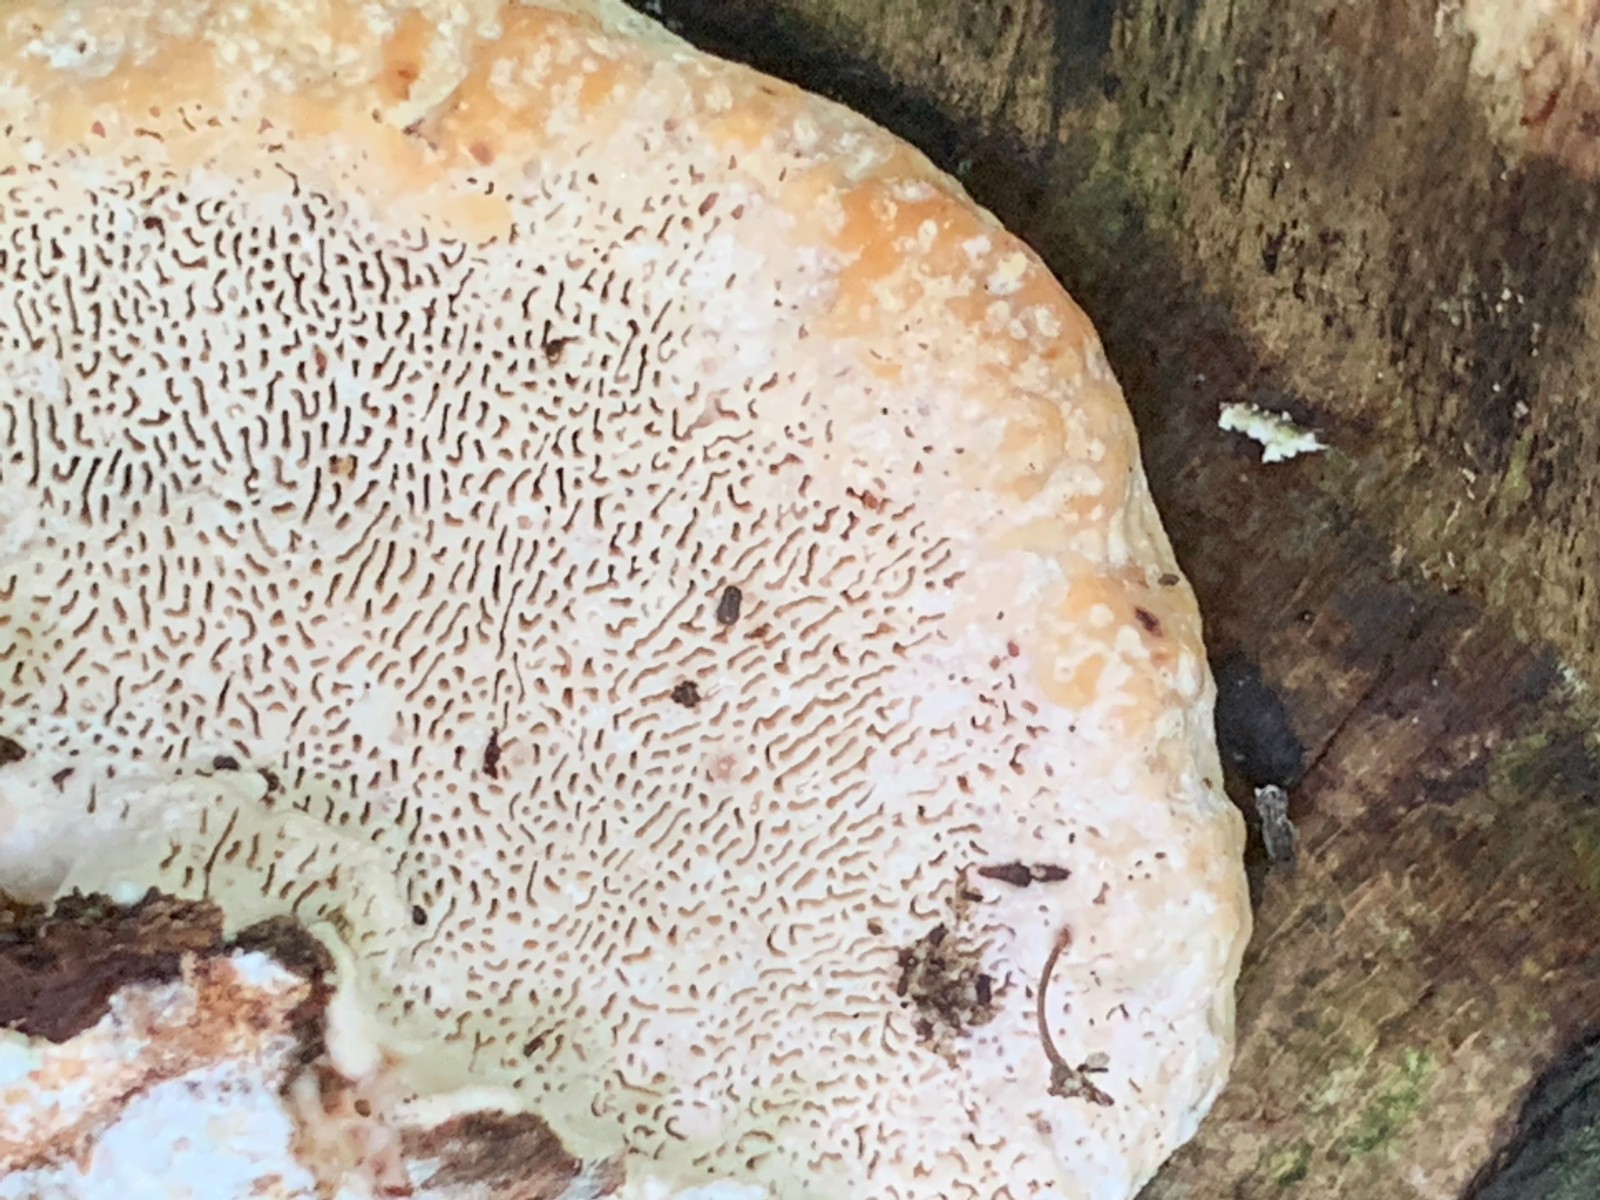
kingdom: Fungi
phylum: Basidiomycota
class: Agaricomycetes
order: Polyporales
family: Polyporaceae
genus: Trametes
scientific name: Trametes gibbosa
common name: puklet læderporesvamp
